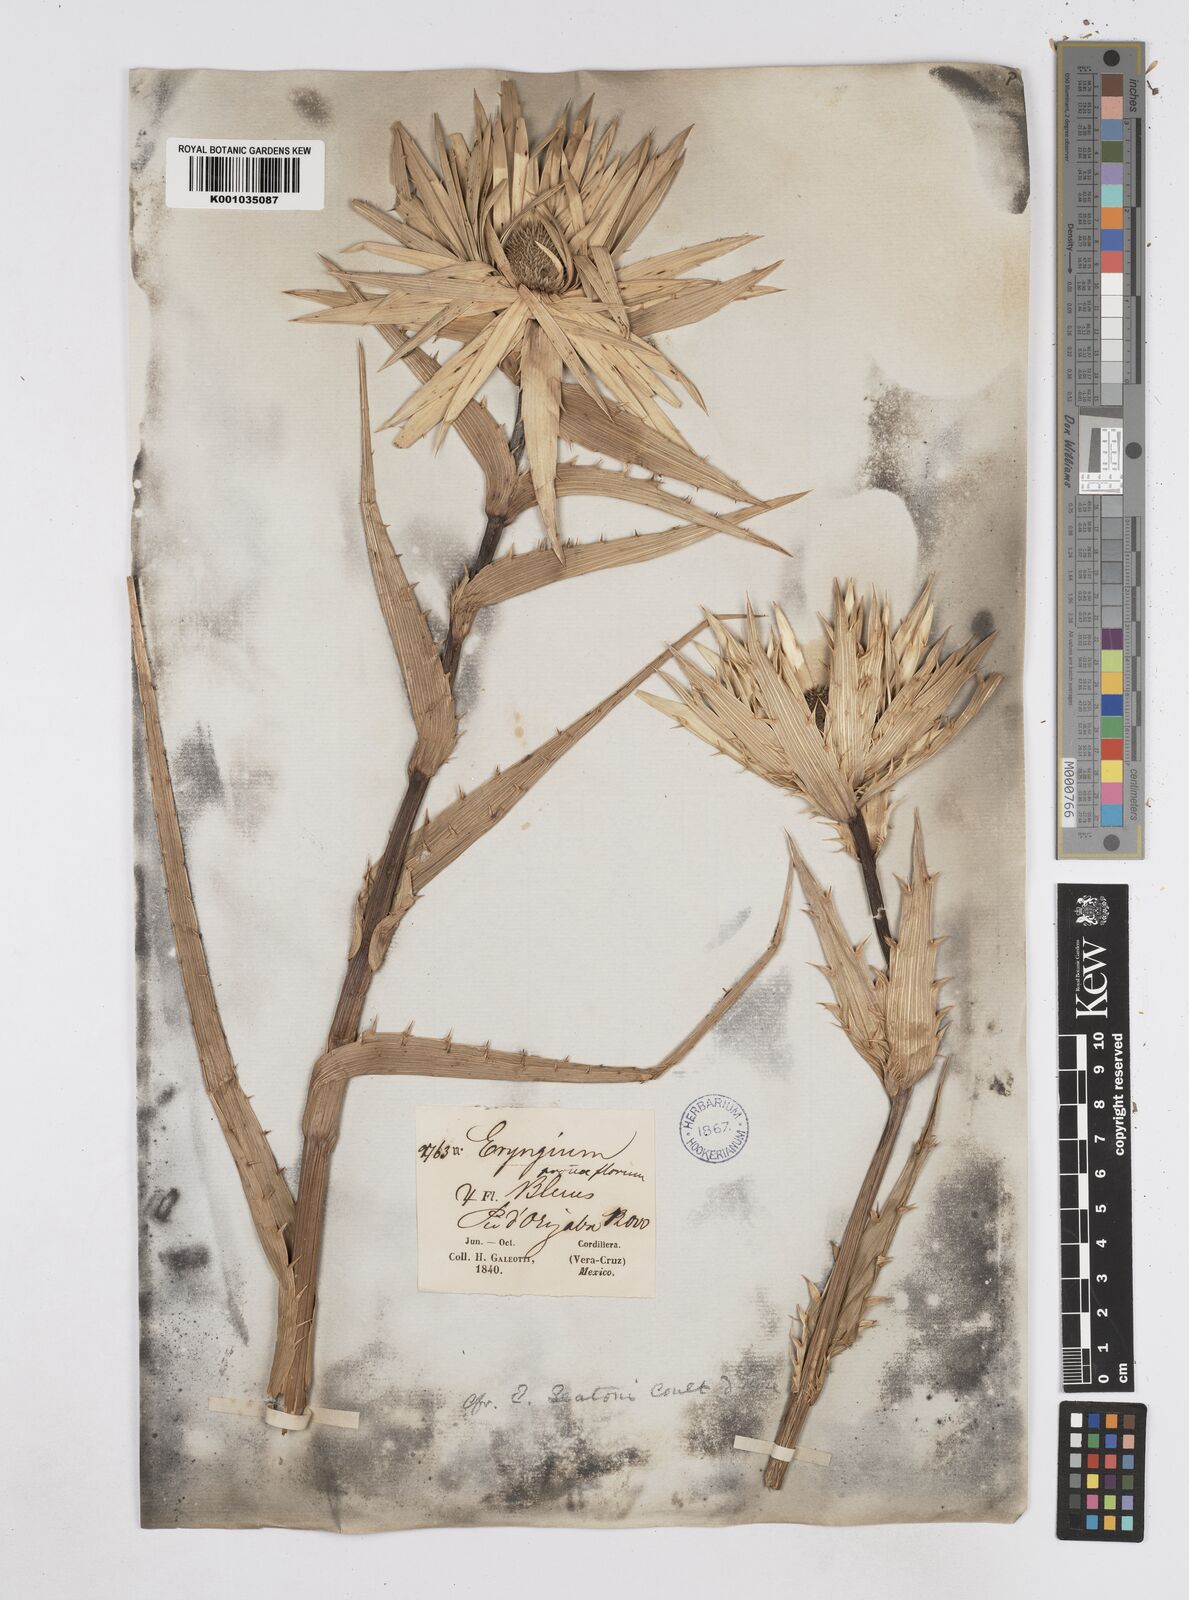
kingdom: Plantae
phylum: Tracheophyta
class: Magnoliopsida
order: Apiales
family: Apiaceae
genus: Eryngium
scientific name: Eryngium proteiflorum
